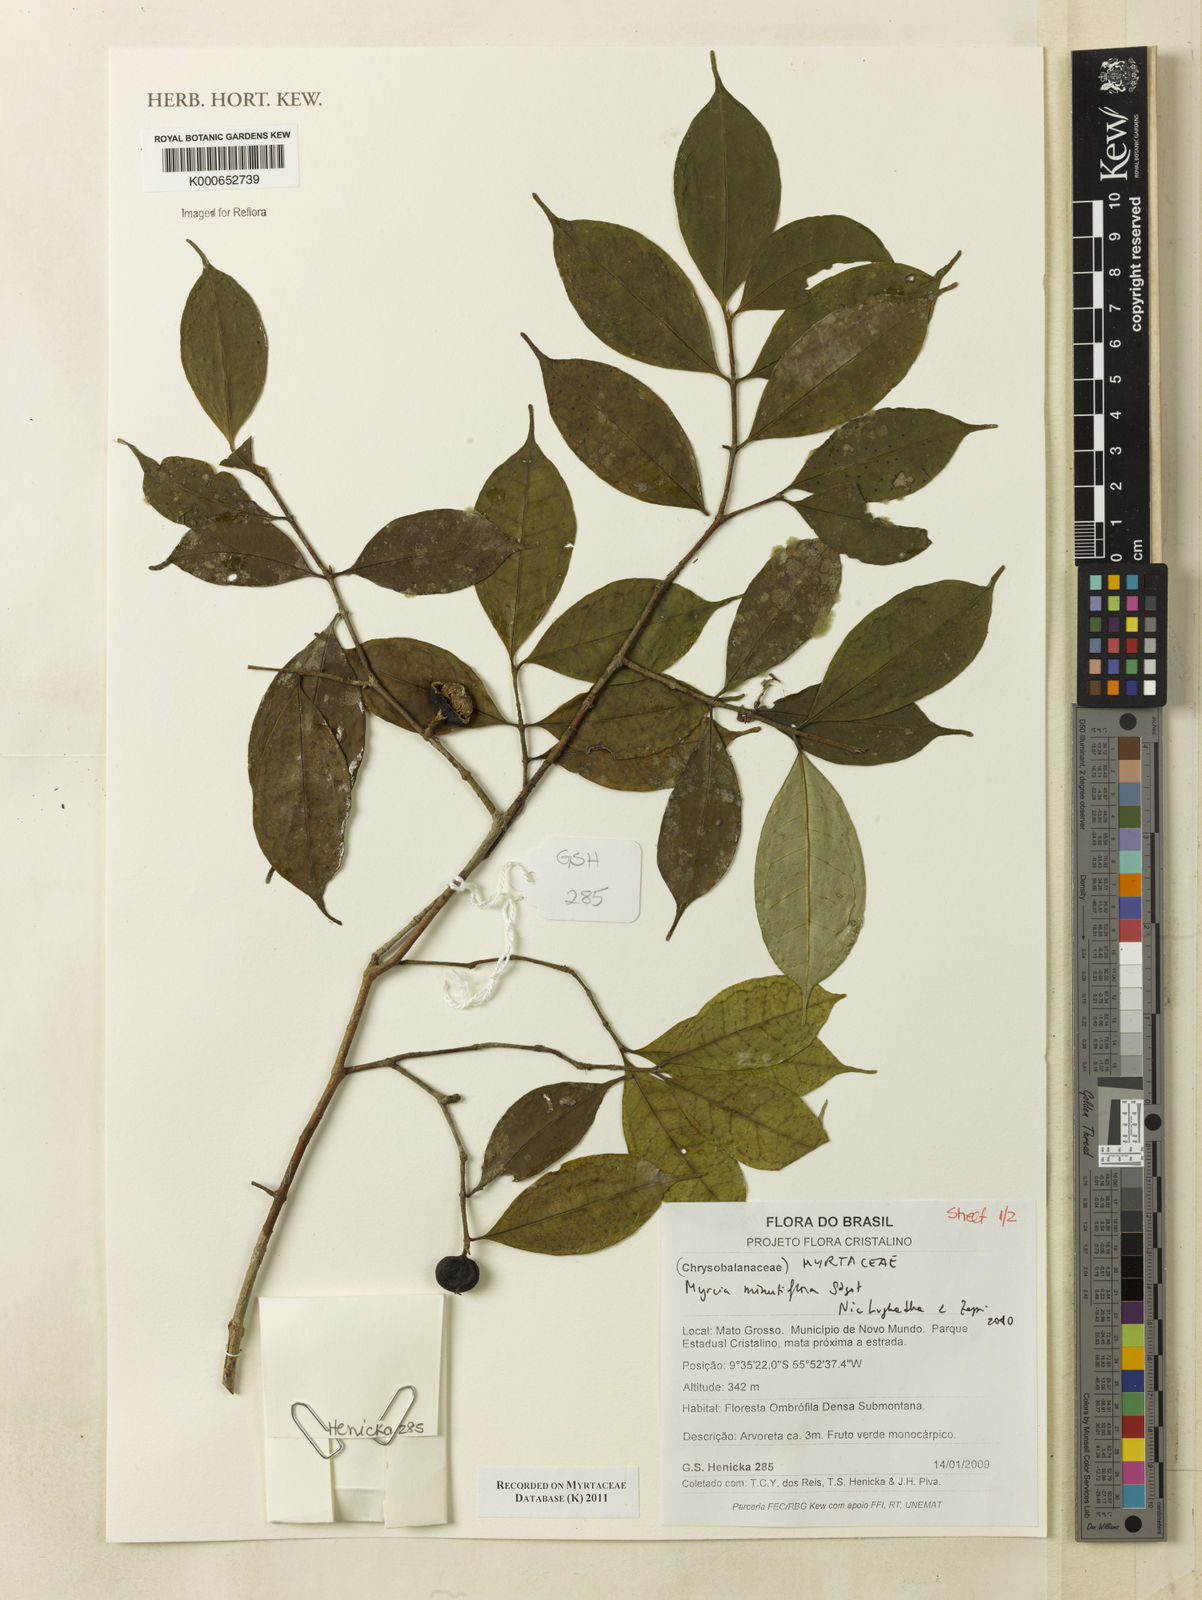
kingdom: Plantae
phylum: Tracheophyta
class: Magnoliopsida
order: Myrtales
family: Myrtaceae
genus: Myrcia
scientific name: Myrcia minutiflora
